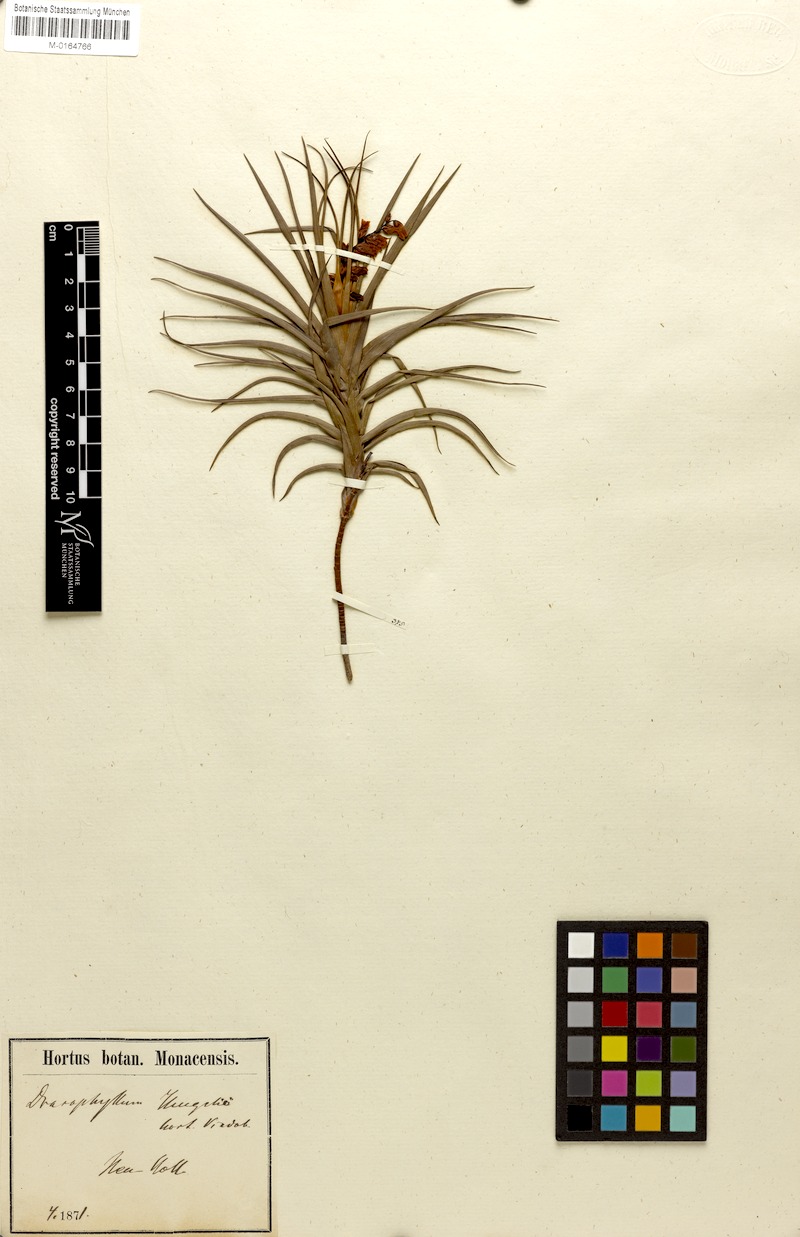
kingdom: Plantae
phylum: Tracheophyta
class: Magnoliopsida
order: Ericales
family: Ericaceae
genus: Dracophyllum
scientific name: Dracophyllum
